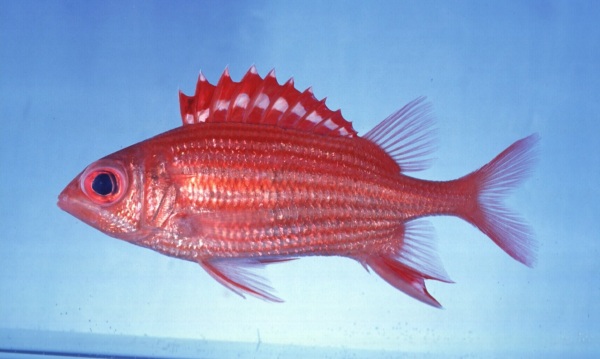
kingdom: Animalia
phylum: Chordata
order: Beryciformes
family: Holocentridae
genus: Sargocentron
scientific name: Sargocentron ittodai
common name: Samurai squirrelfish
